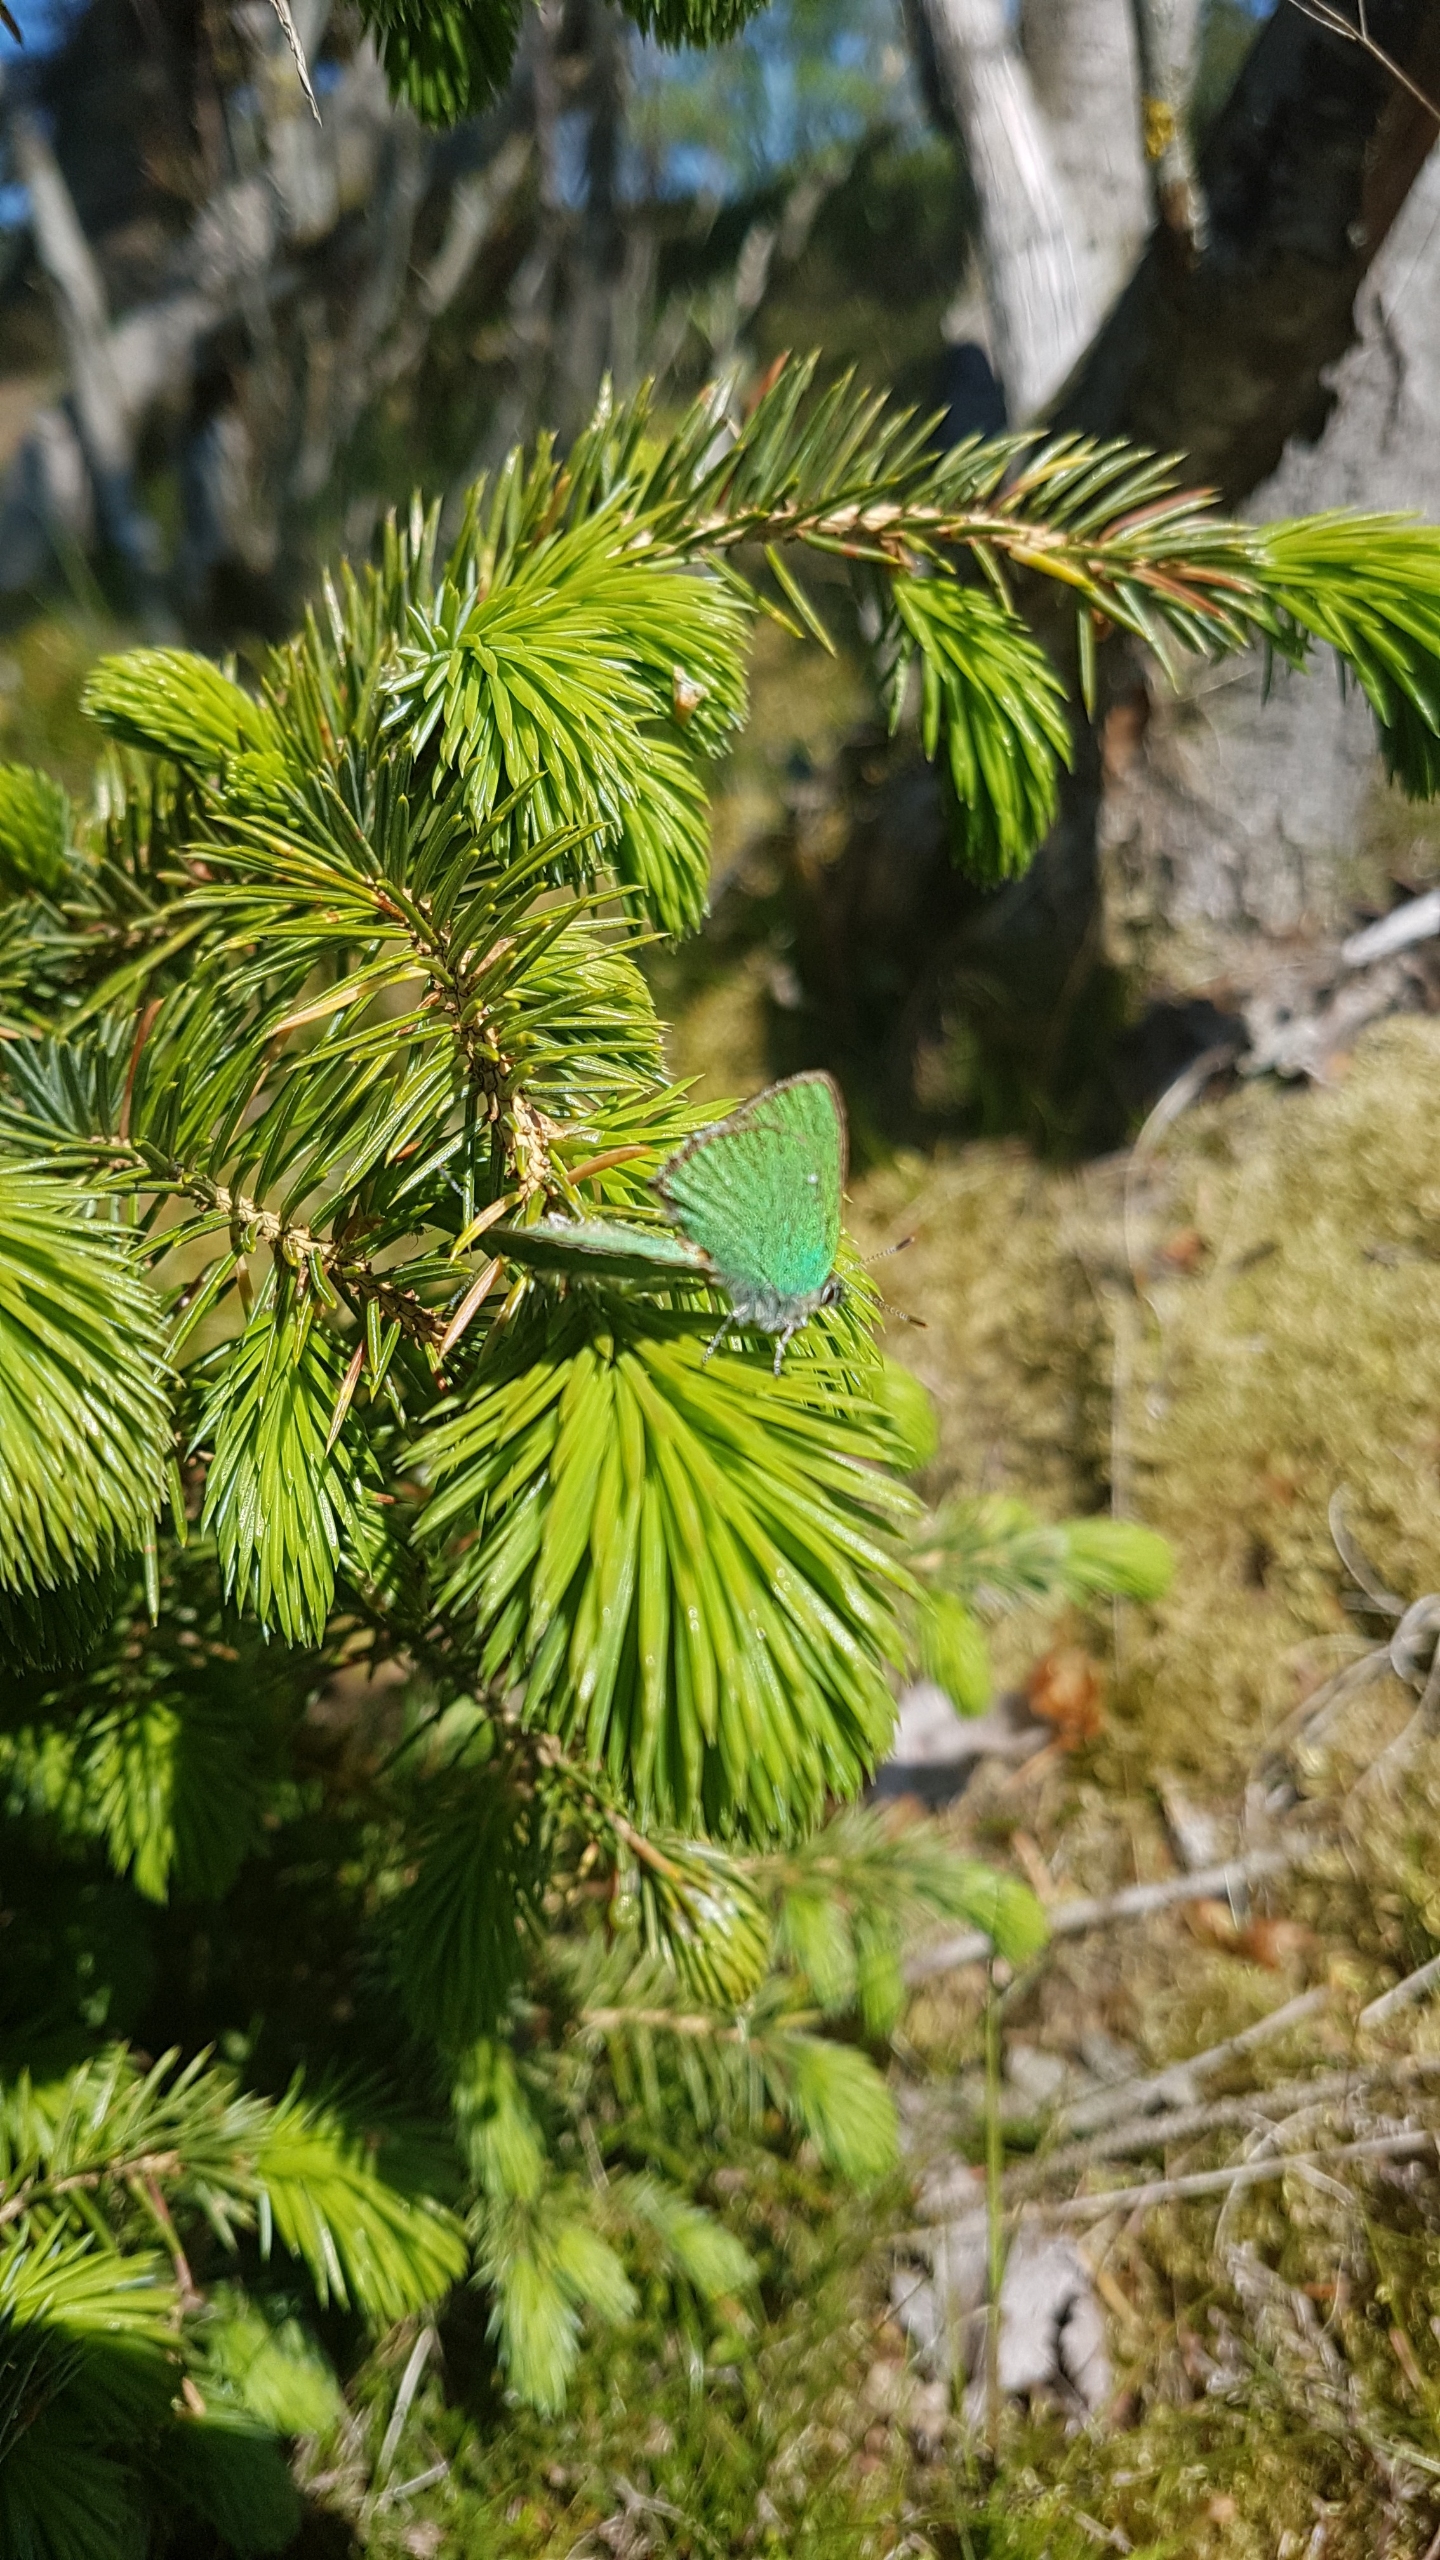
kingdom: Animalia
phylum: Arthropoda
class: Insecta
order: Lepidoptera
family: Lycaenidae
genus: Callophrys
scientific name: Callophrys rubi
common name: Grøn busksommerfugl
